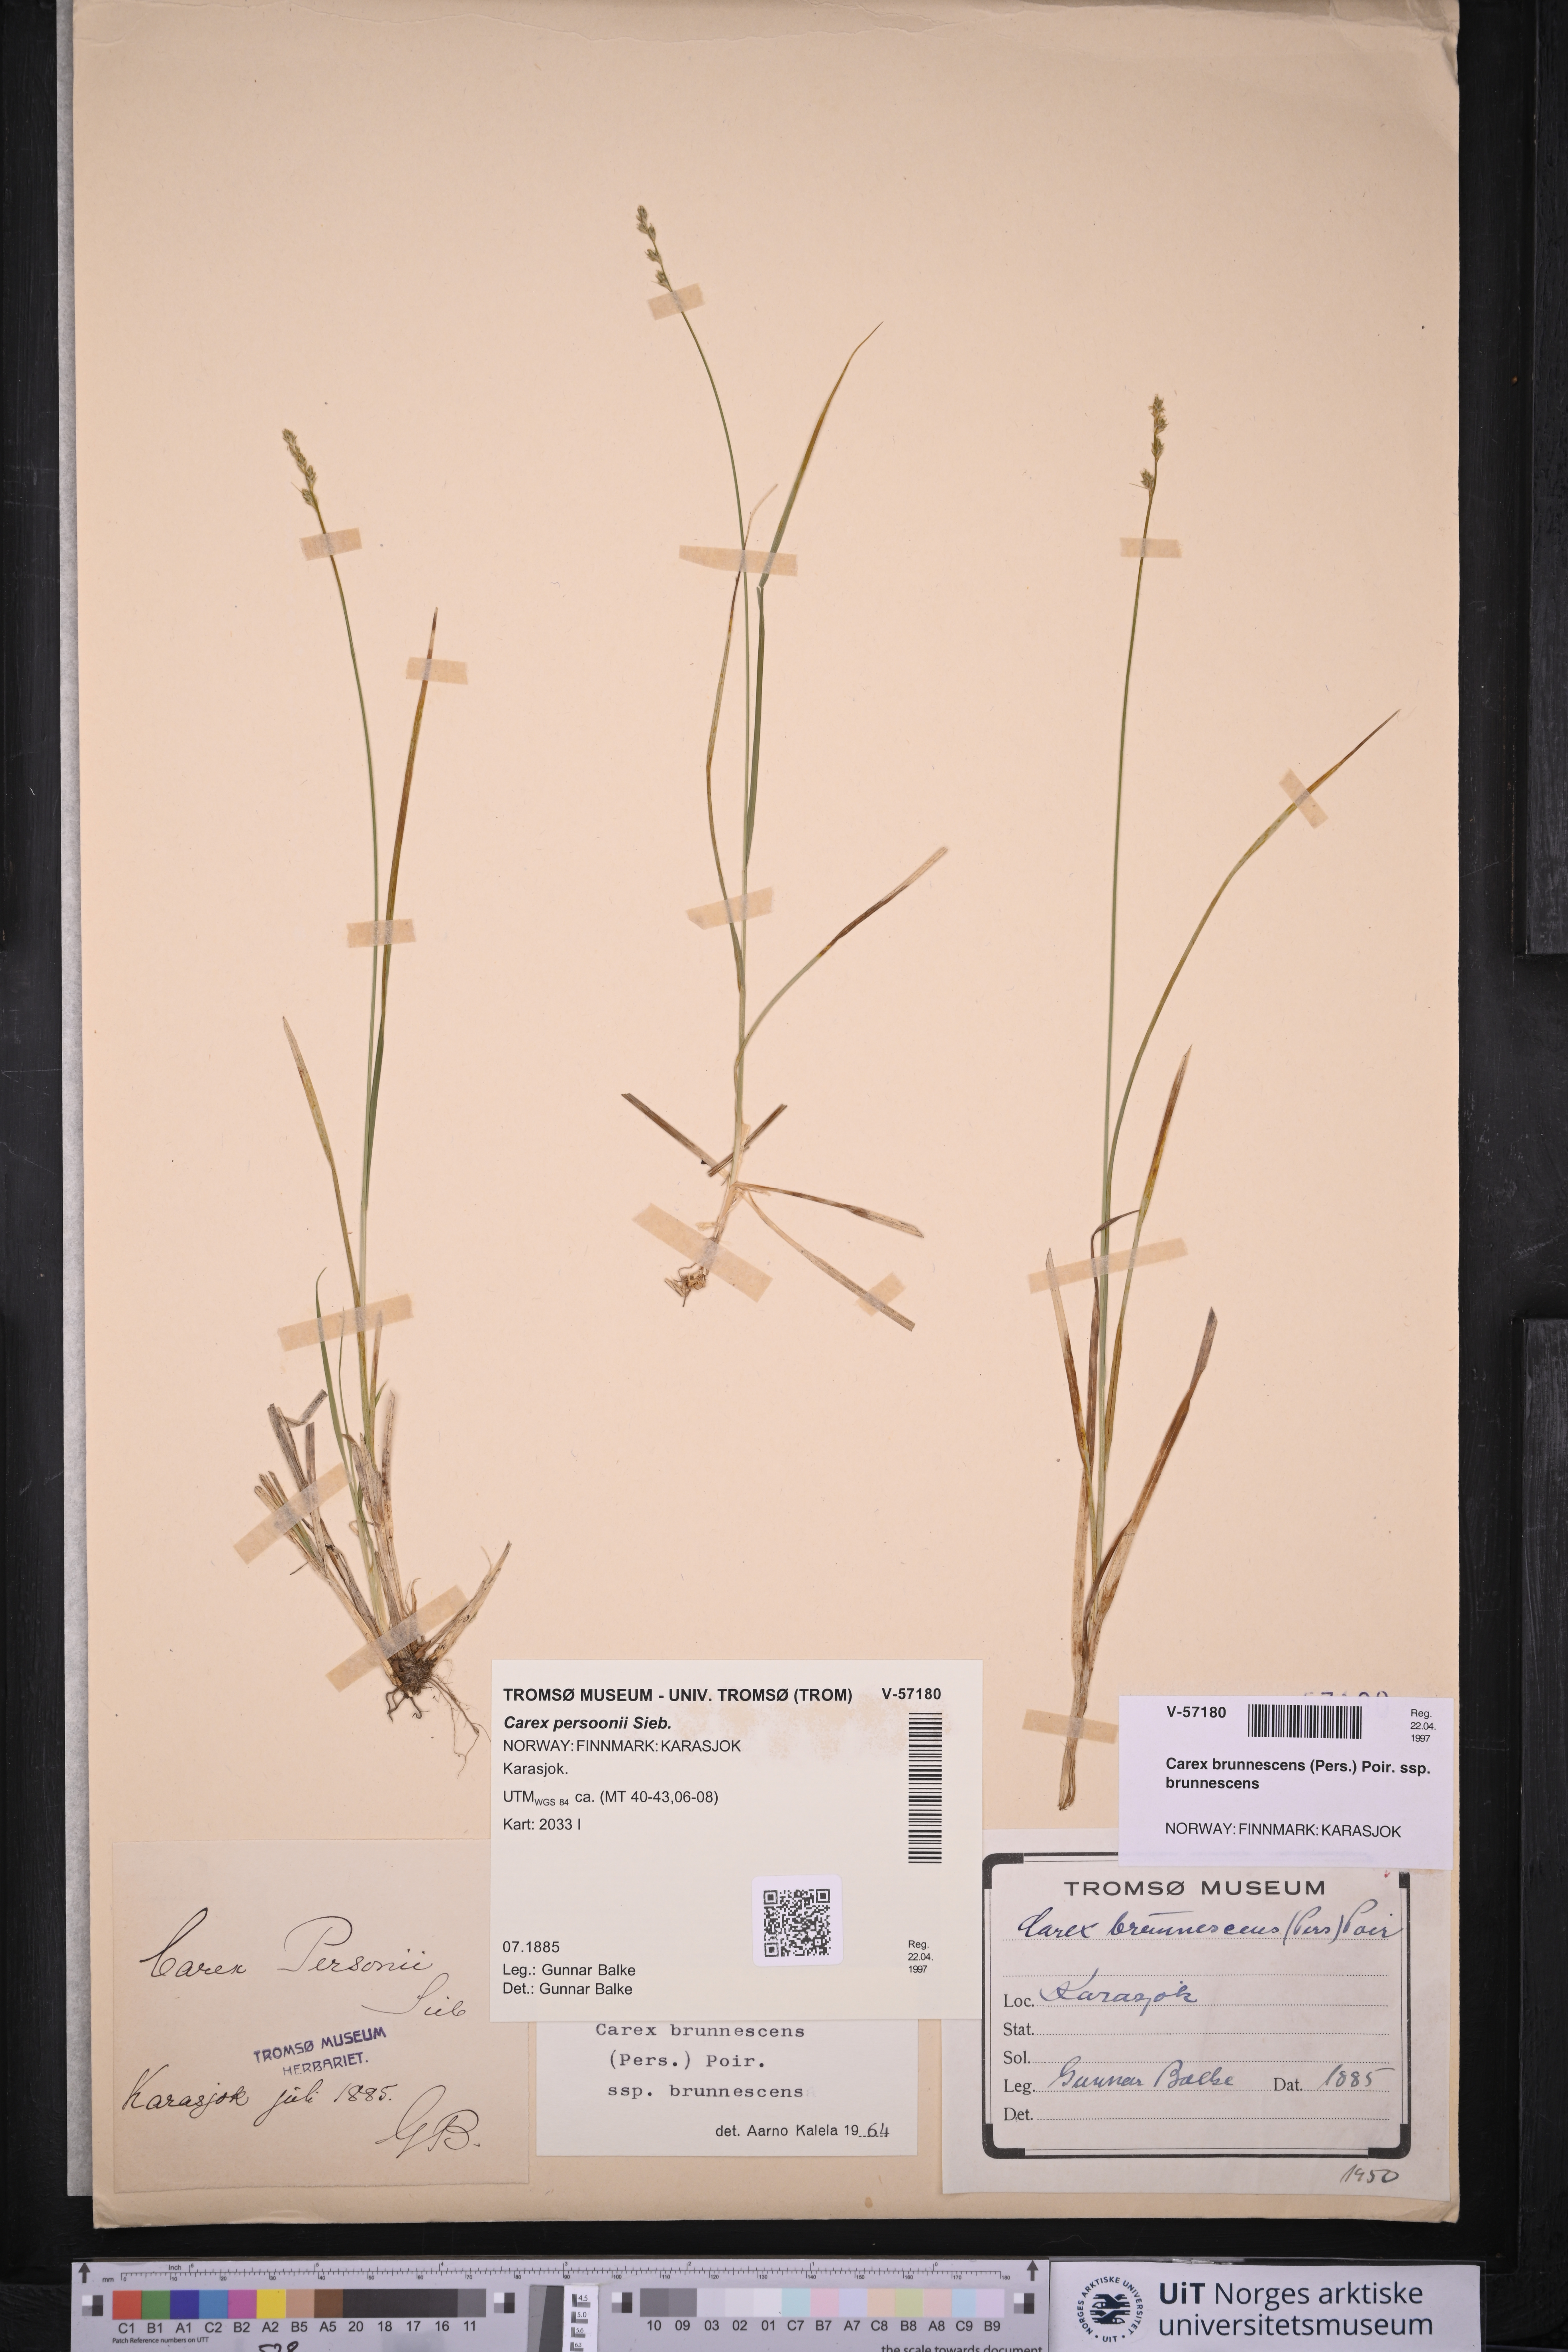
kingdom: Plantae
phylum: Tracheophyta
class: Liliopsida
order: Poales
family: Cyperaceae
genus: Carex
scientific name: Carex brunnescens
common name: Brown sedge
